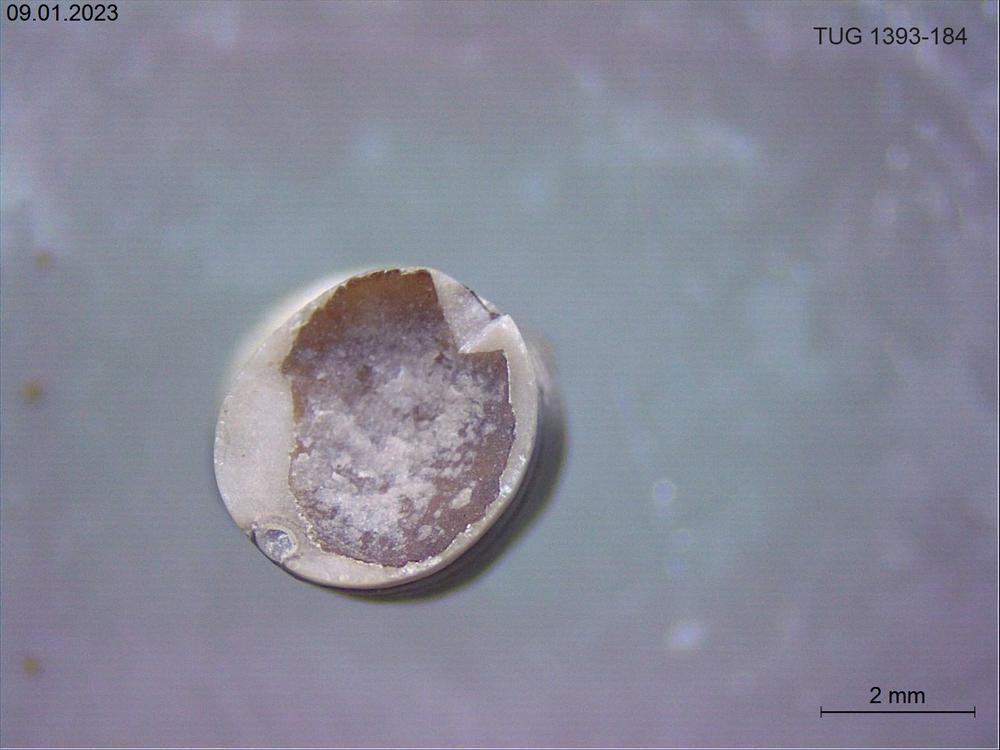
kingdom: Animalia
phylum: Mollusca
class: Cephalopoda
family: Discosoridae
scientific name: Discosoridae
